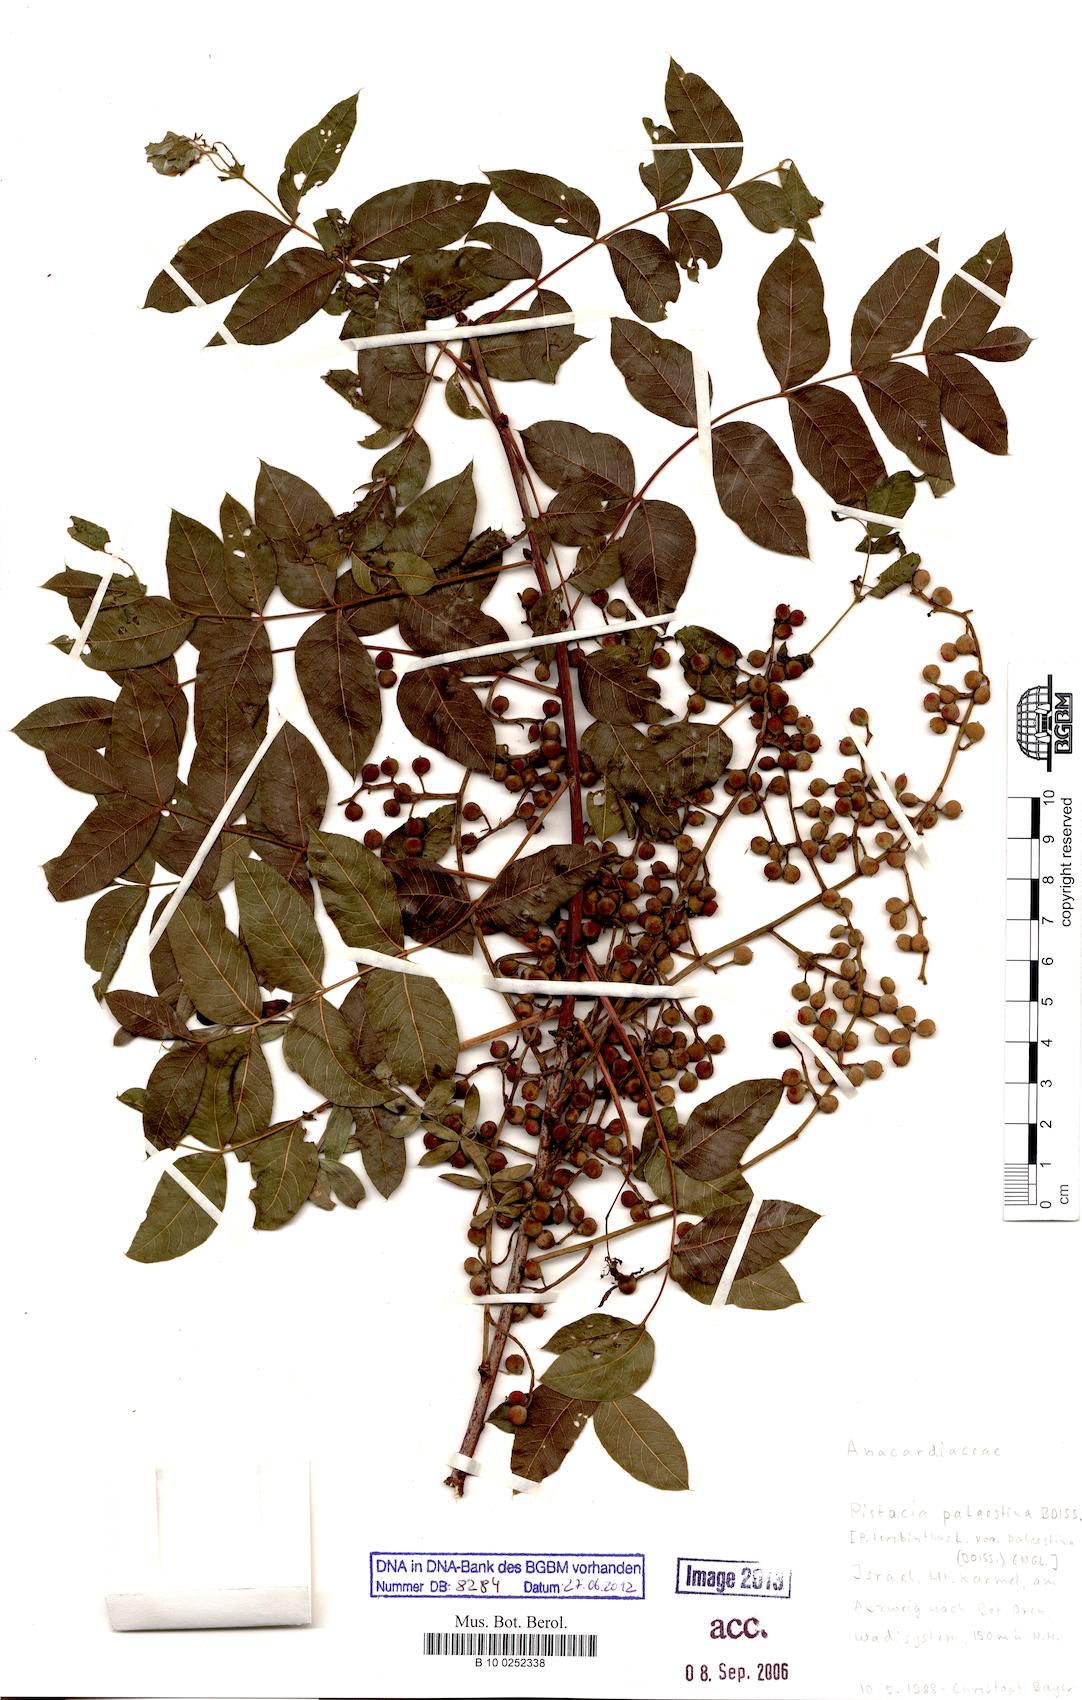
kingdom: Plantae
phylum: Tracheophyta
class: Magnoliopsida
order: Sapindales
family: Anacardiaceae
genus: Pistacia
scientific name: Pistacia terebinthus
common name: Terebinth
